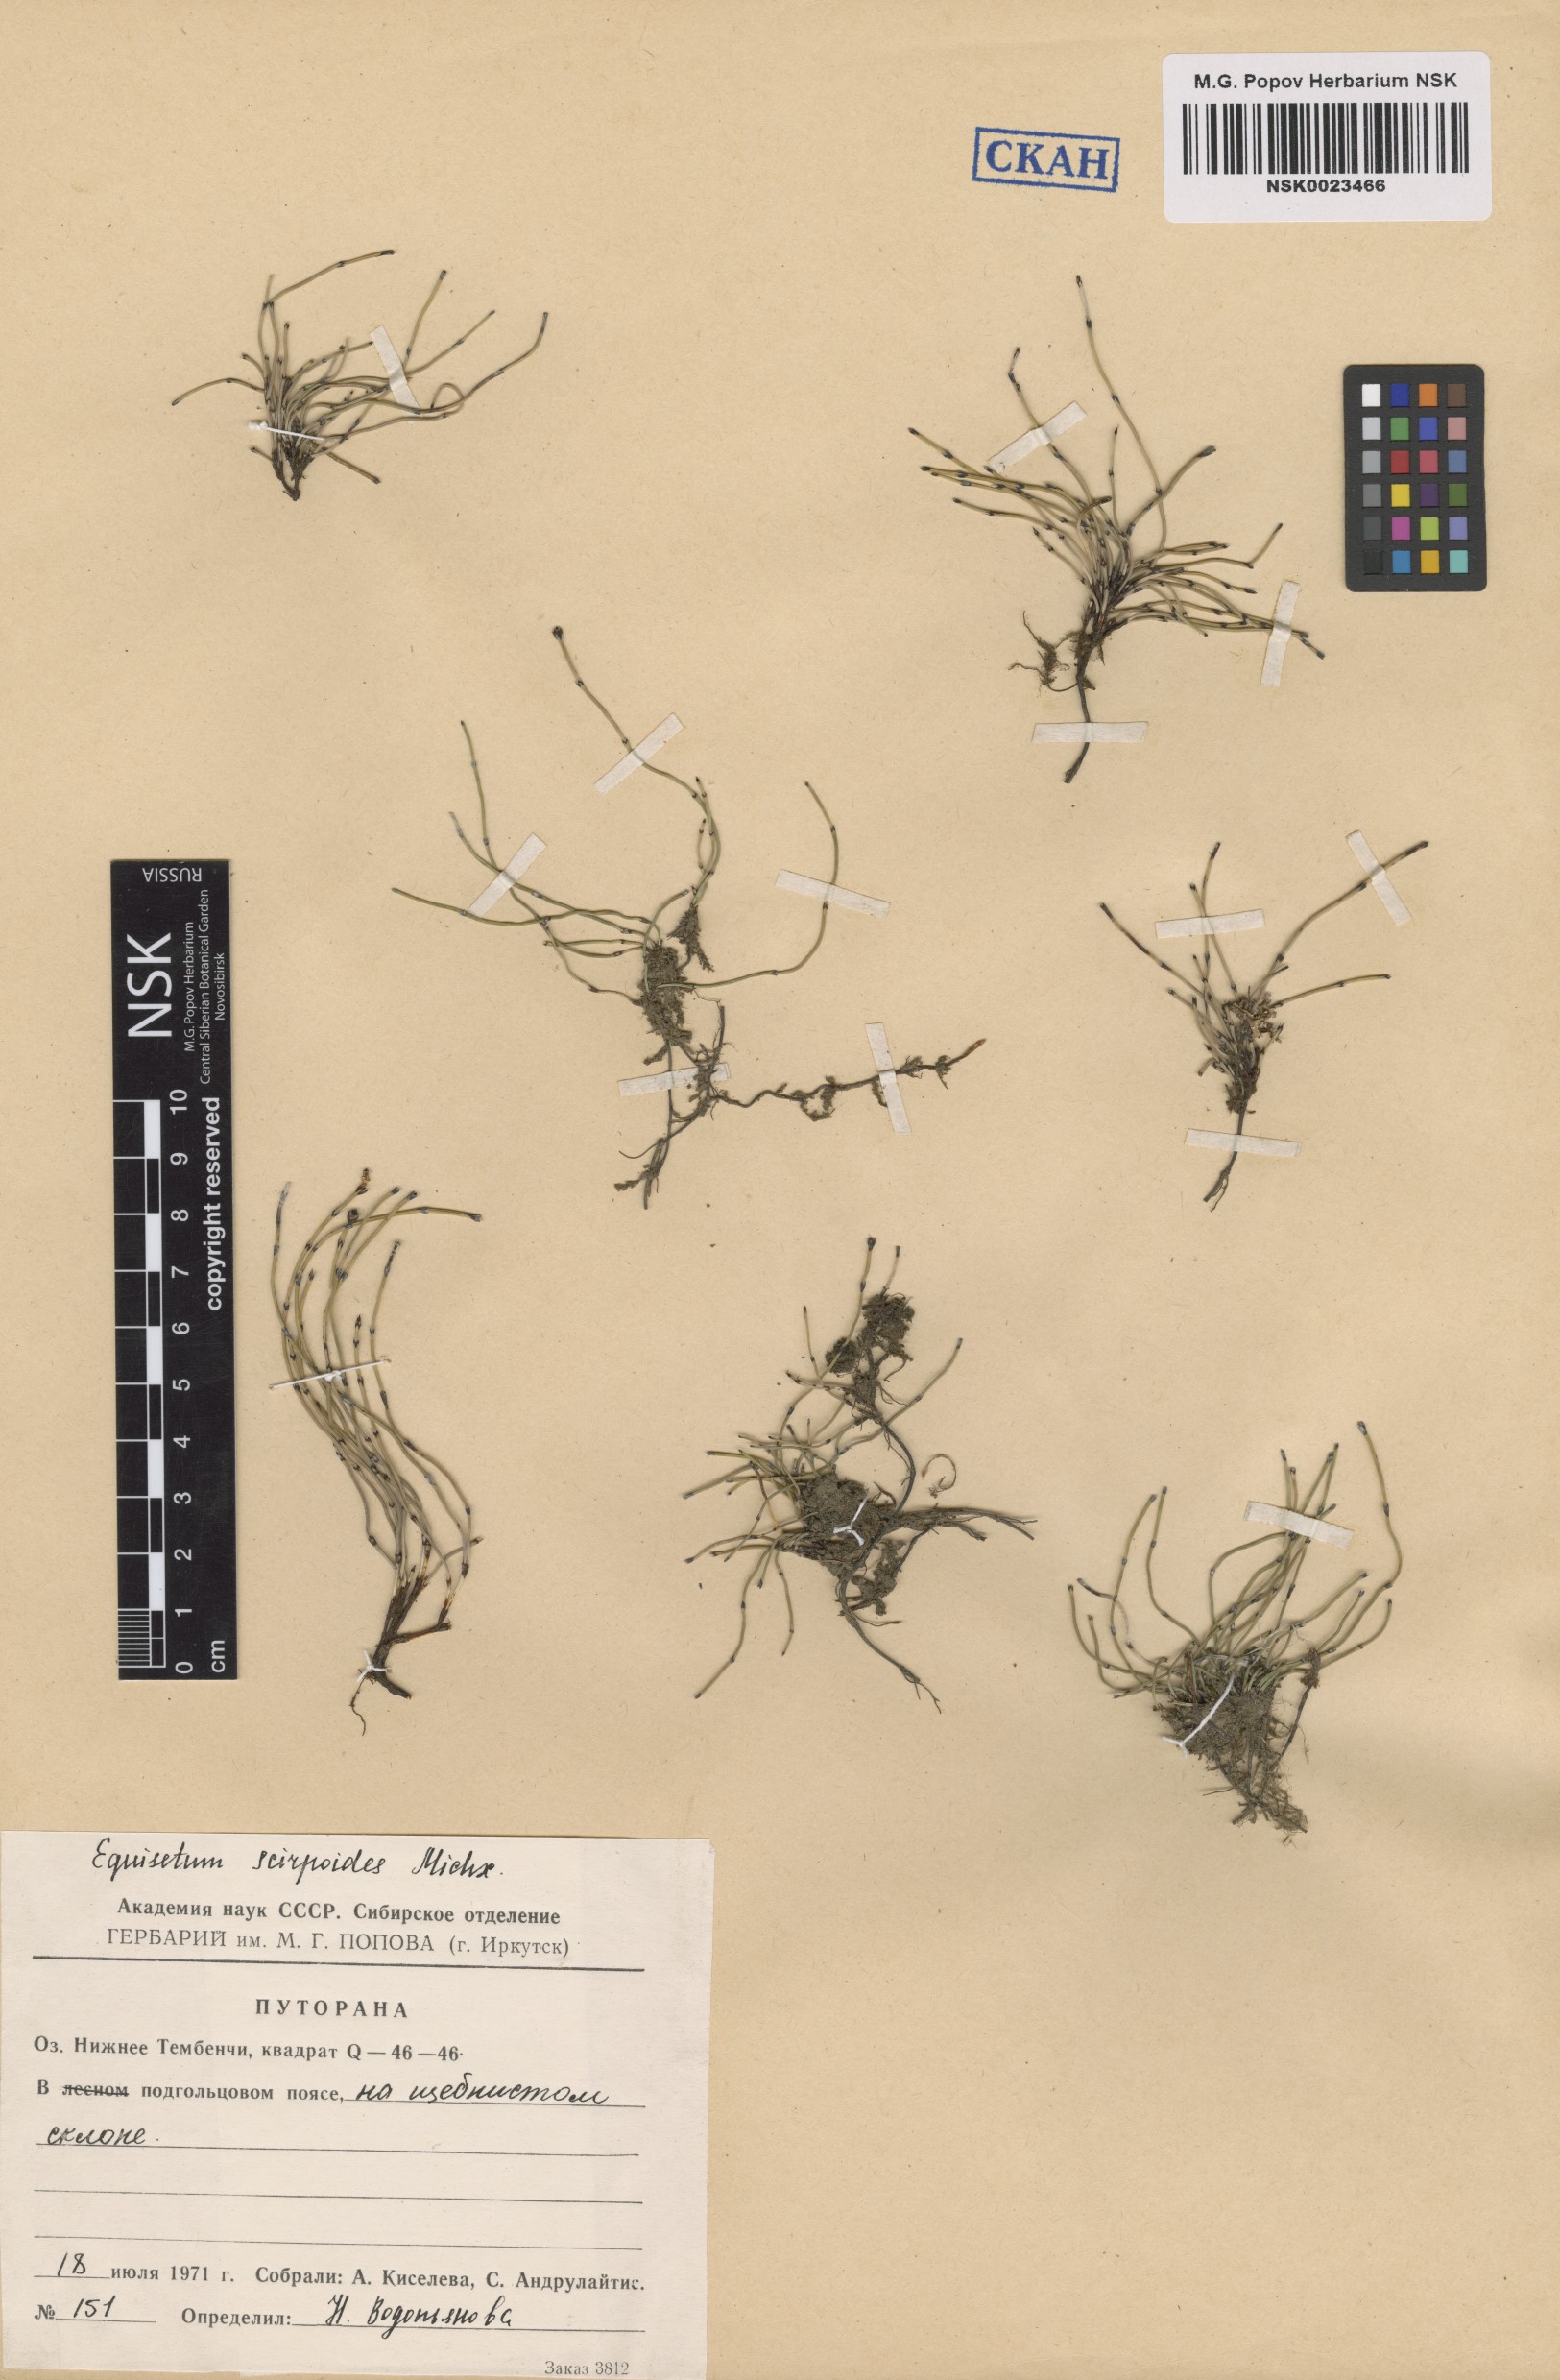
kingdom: Plantae
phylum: Tracheophyta
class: Polypodiopsida
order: Equisetales
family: Equisetaceae
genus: Equisetum
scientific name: Equisetum scirpoides
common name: Delicate horsetail
